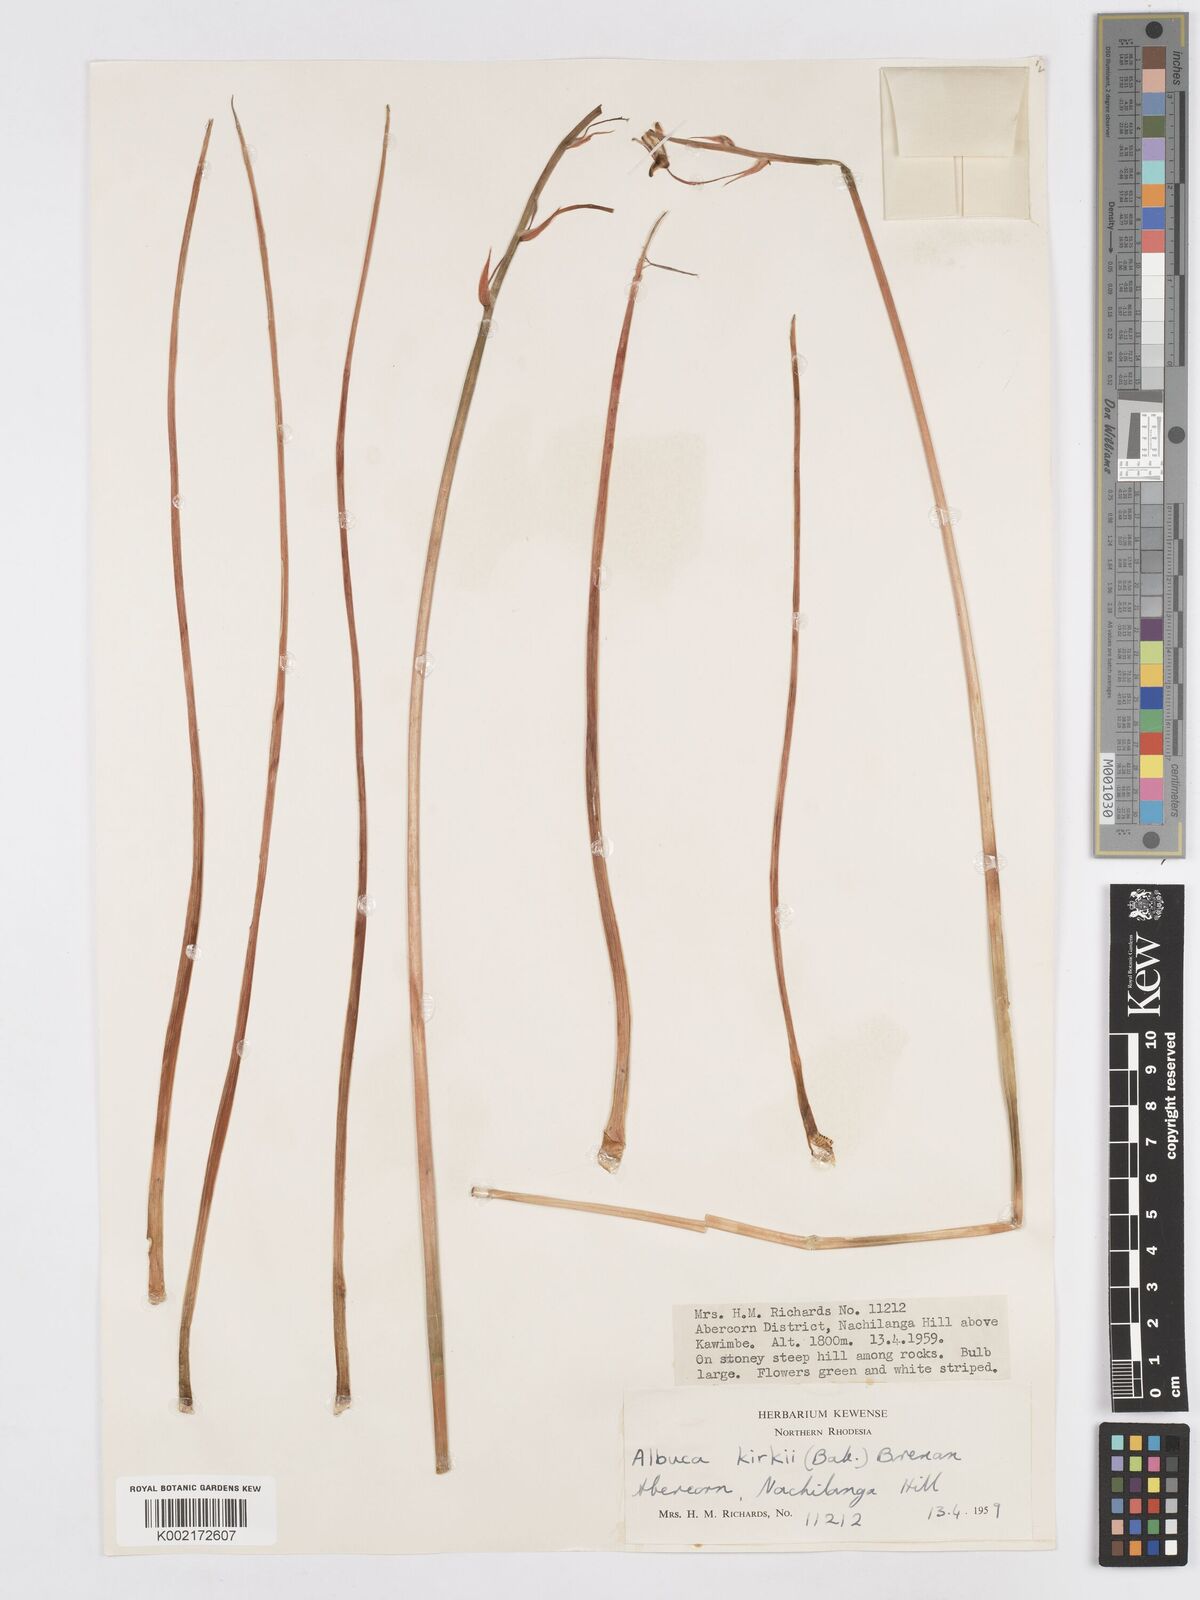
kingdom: Plantae
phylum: Tracheophyta
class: Liliopsida
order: Asparagales
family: Asparagaceae
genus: Albuca
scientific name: Albuca kirkii
